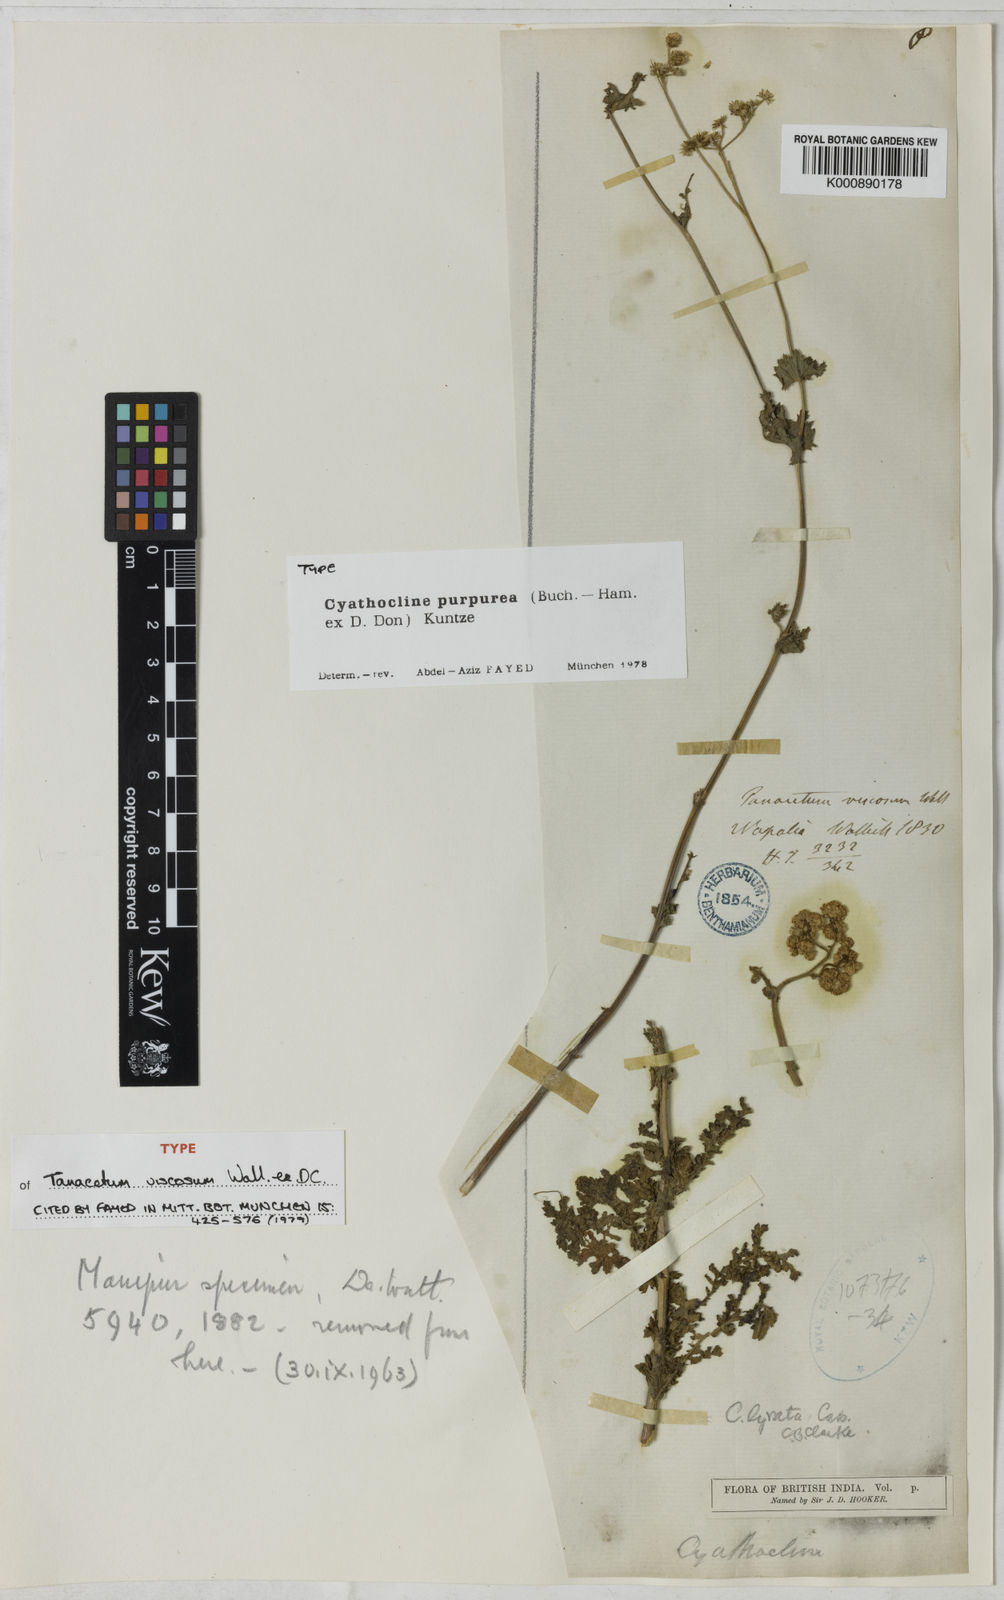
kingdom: Plantae
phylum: Tracheophyta
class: Magnoliopsida
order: Asterales
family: Asteraceae
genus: Cyathocline
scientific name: Cyathocline purpurea
